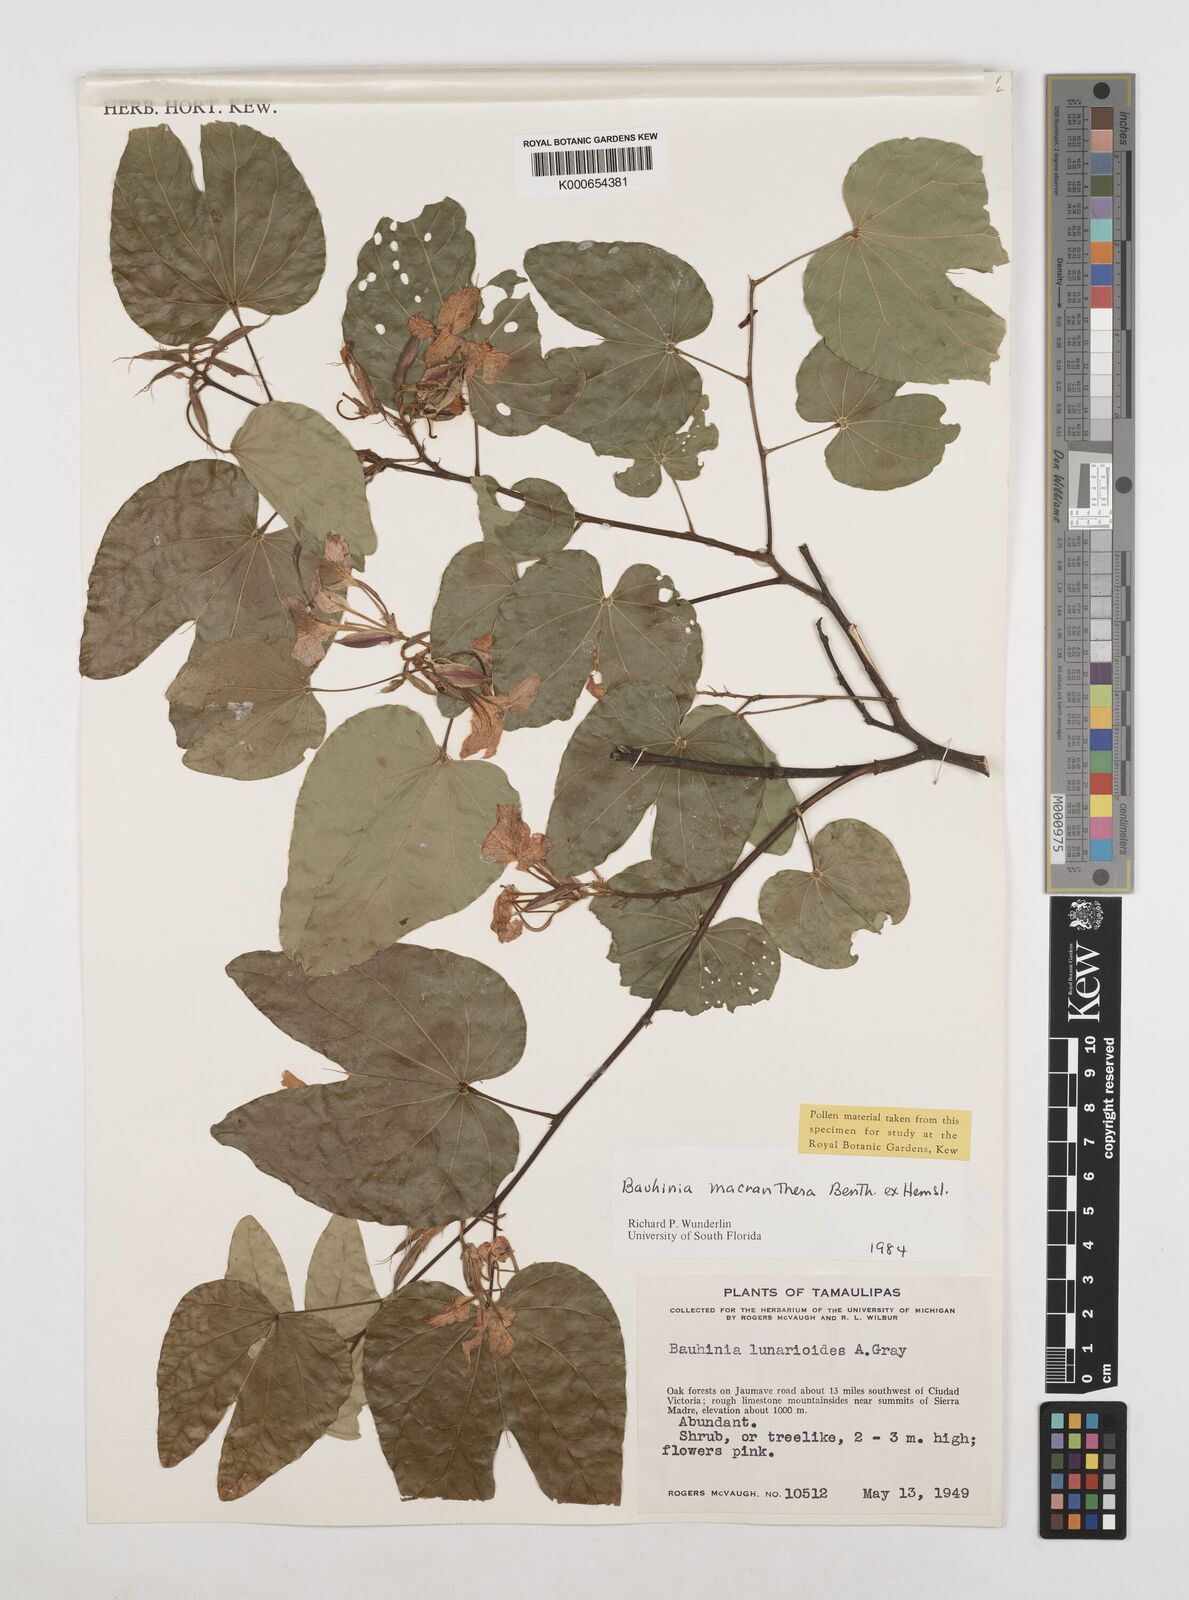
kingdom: Plantae
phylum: Tracheophyta
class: Magnoliopsida
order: Fabales
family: Fabaceae
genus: Bauhinia
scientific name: Bauhinia macranthera
